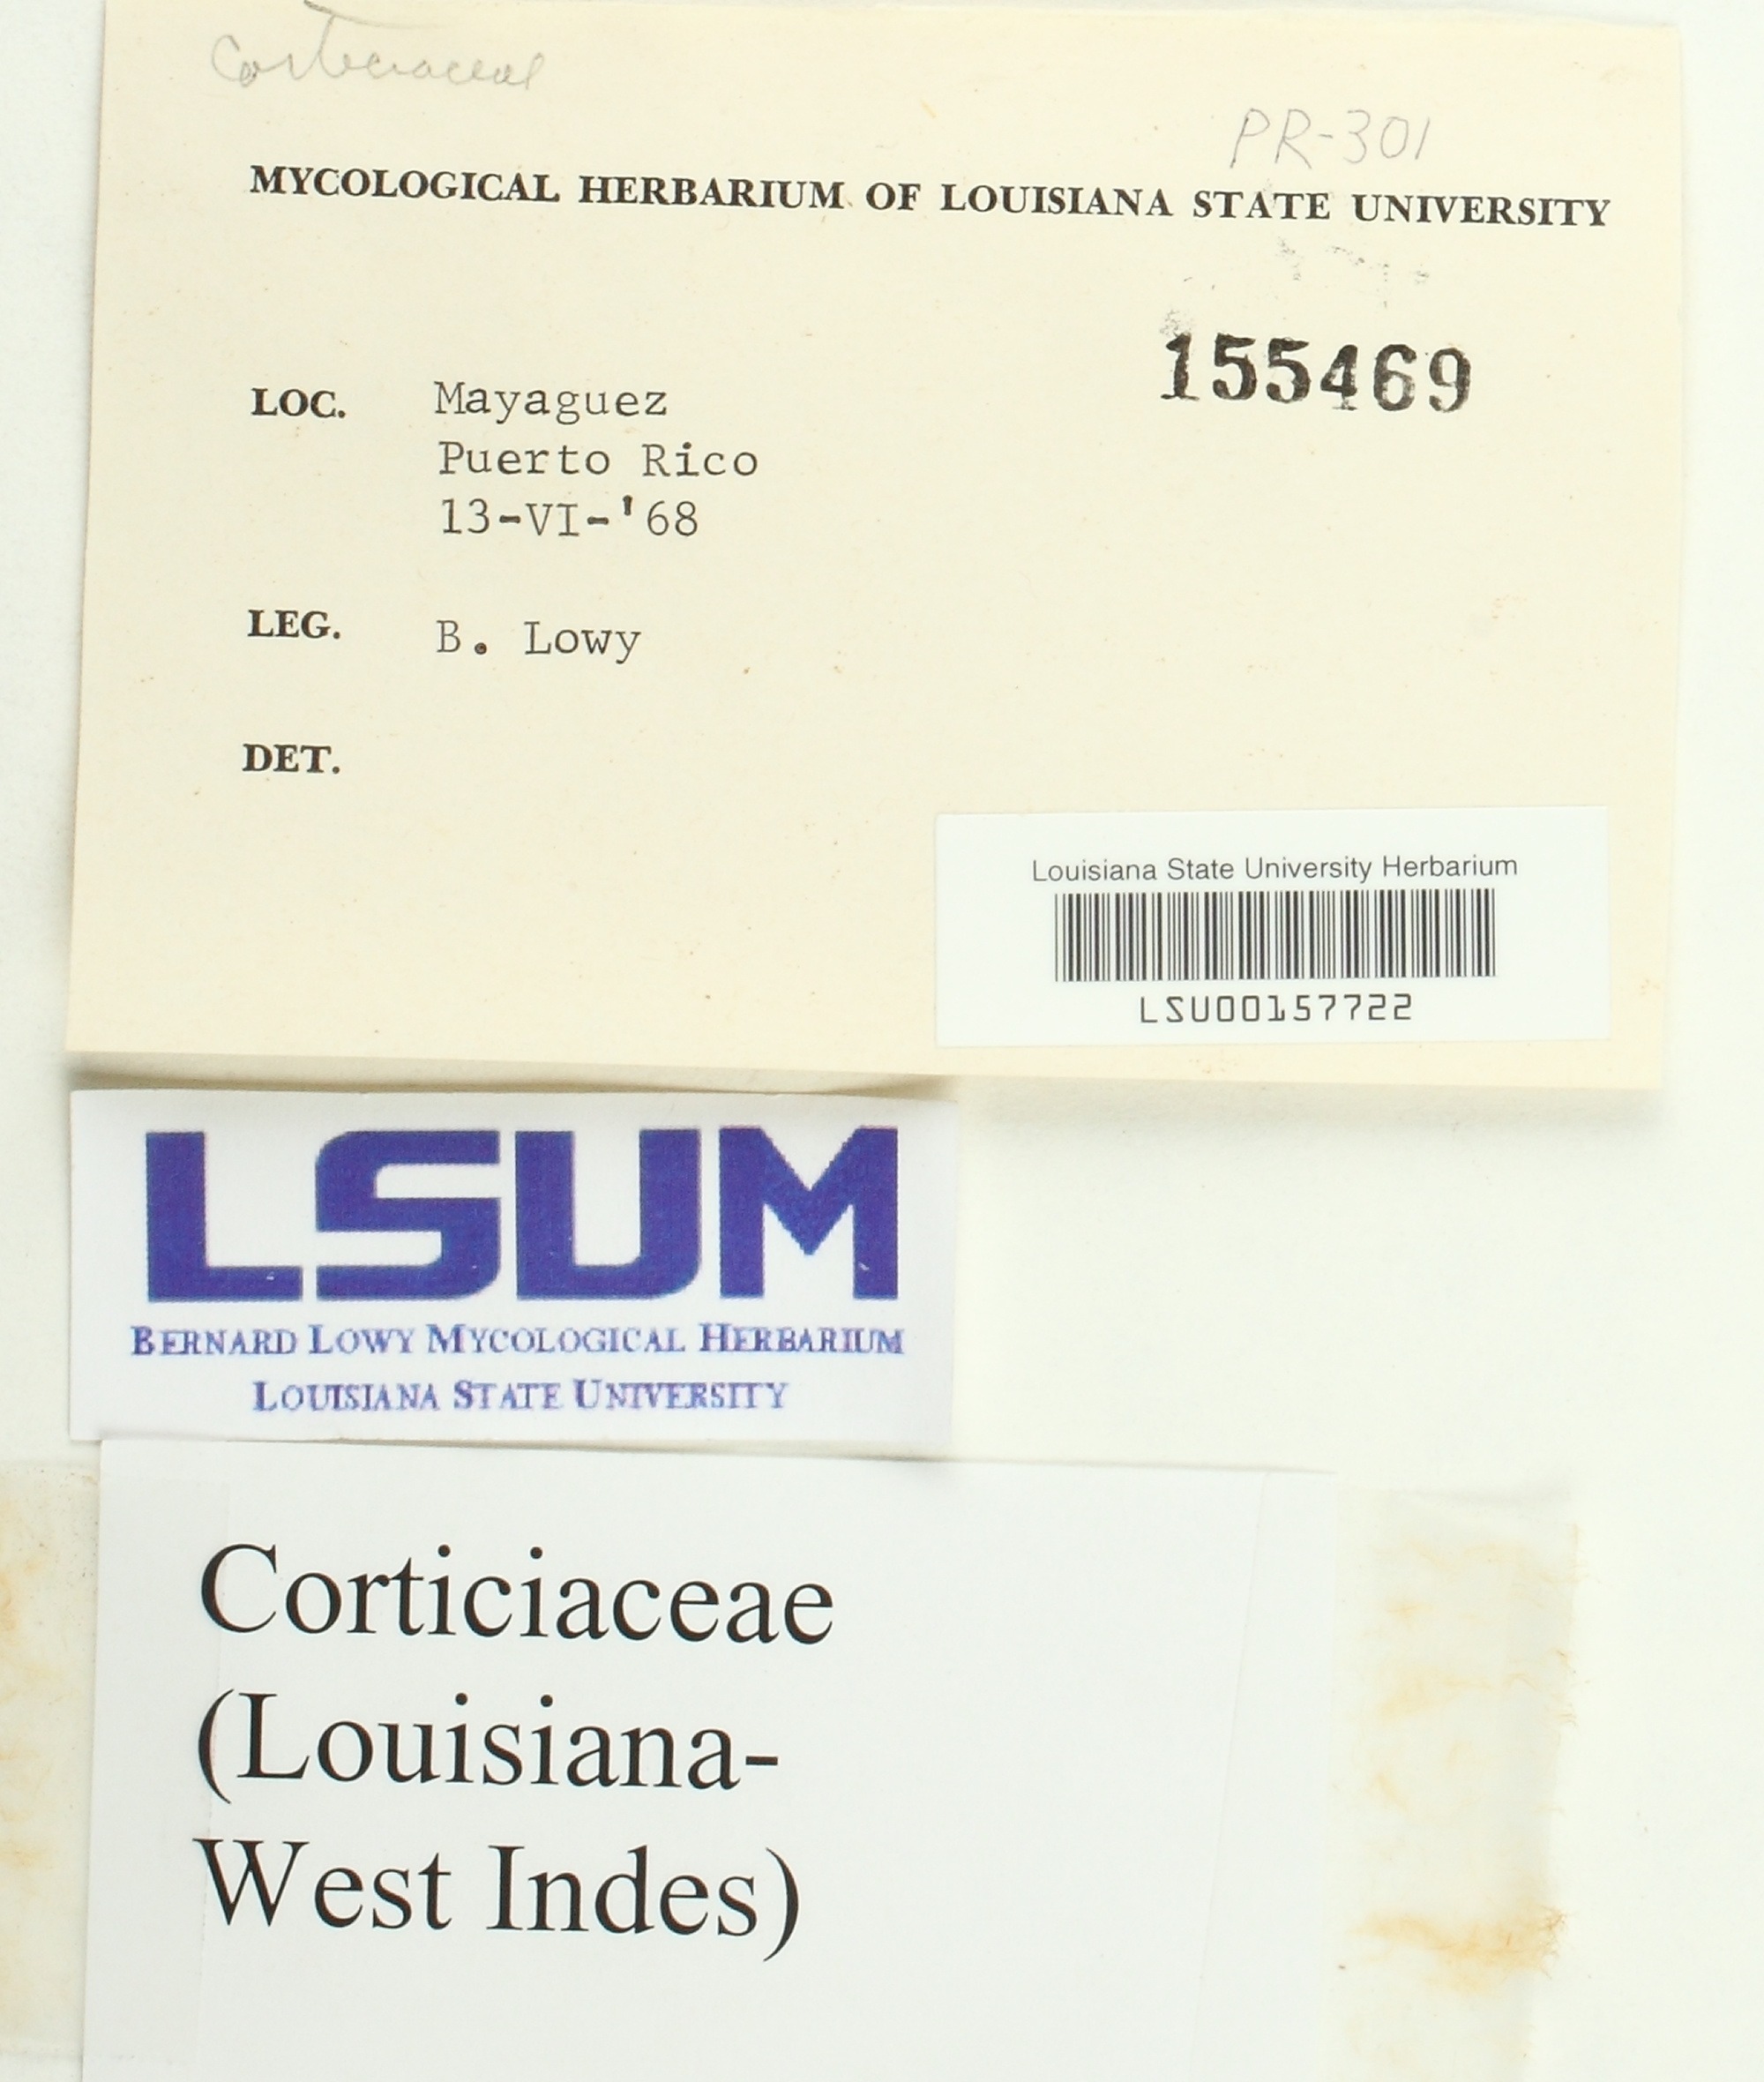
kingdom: Fungi
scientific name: Fungi
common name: Fungi
